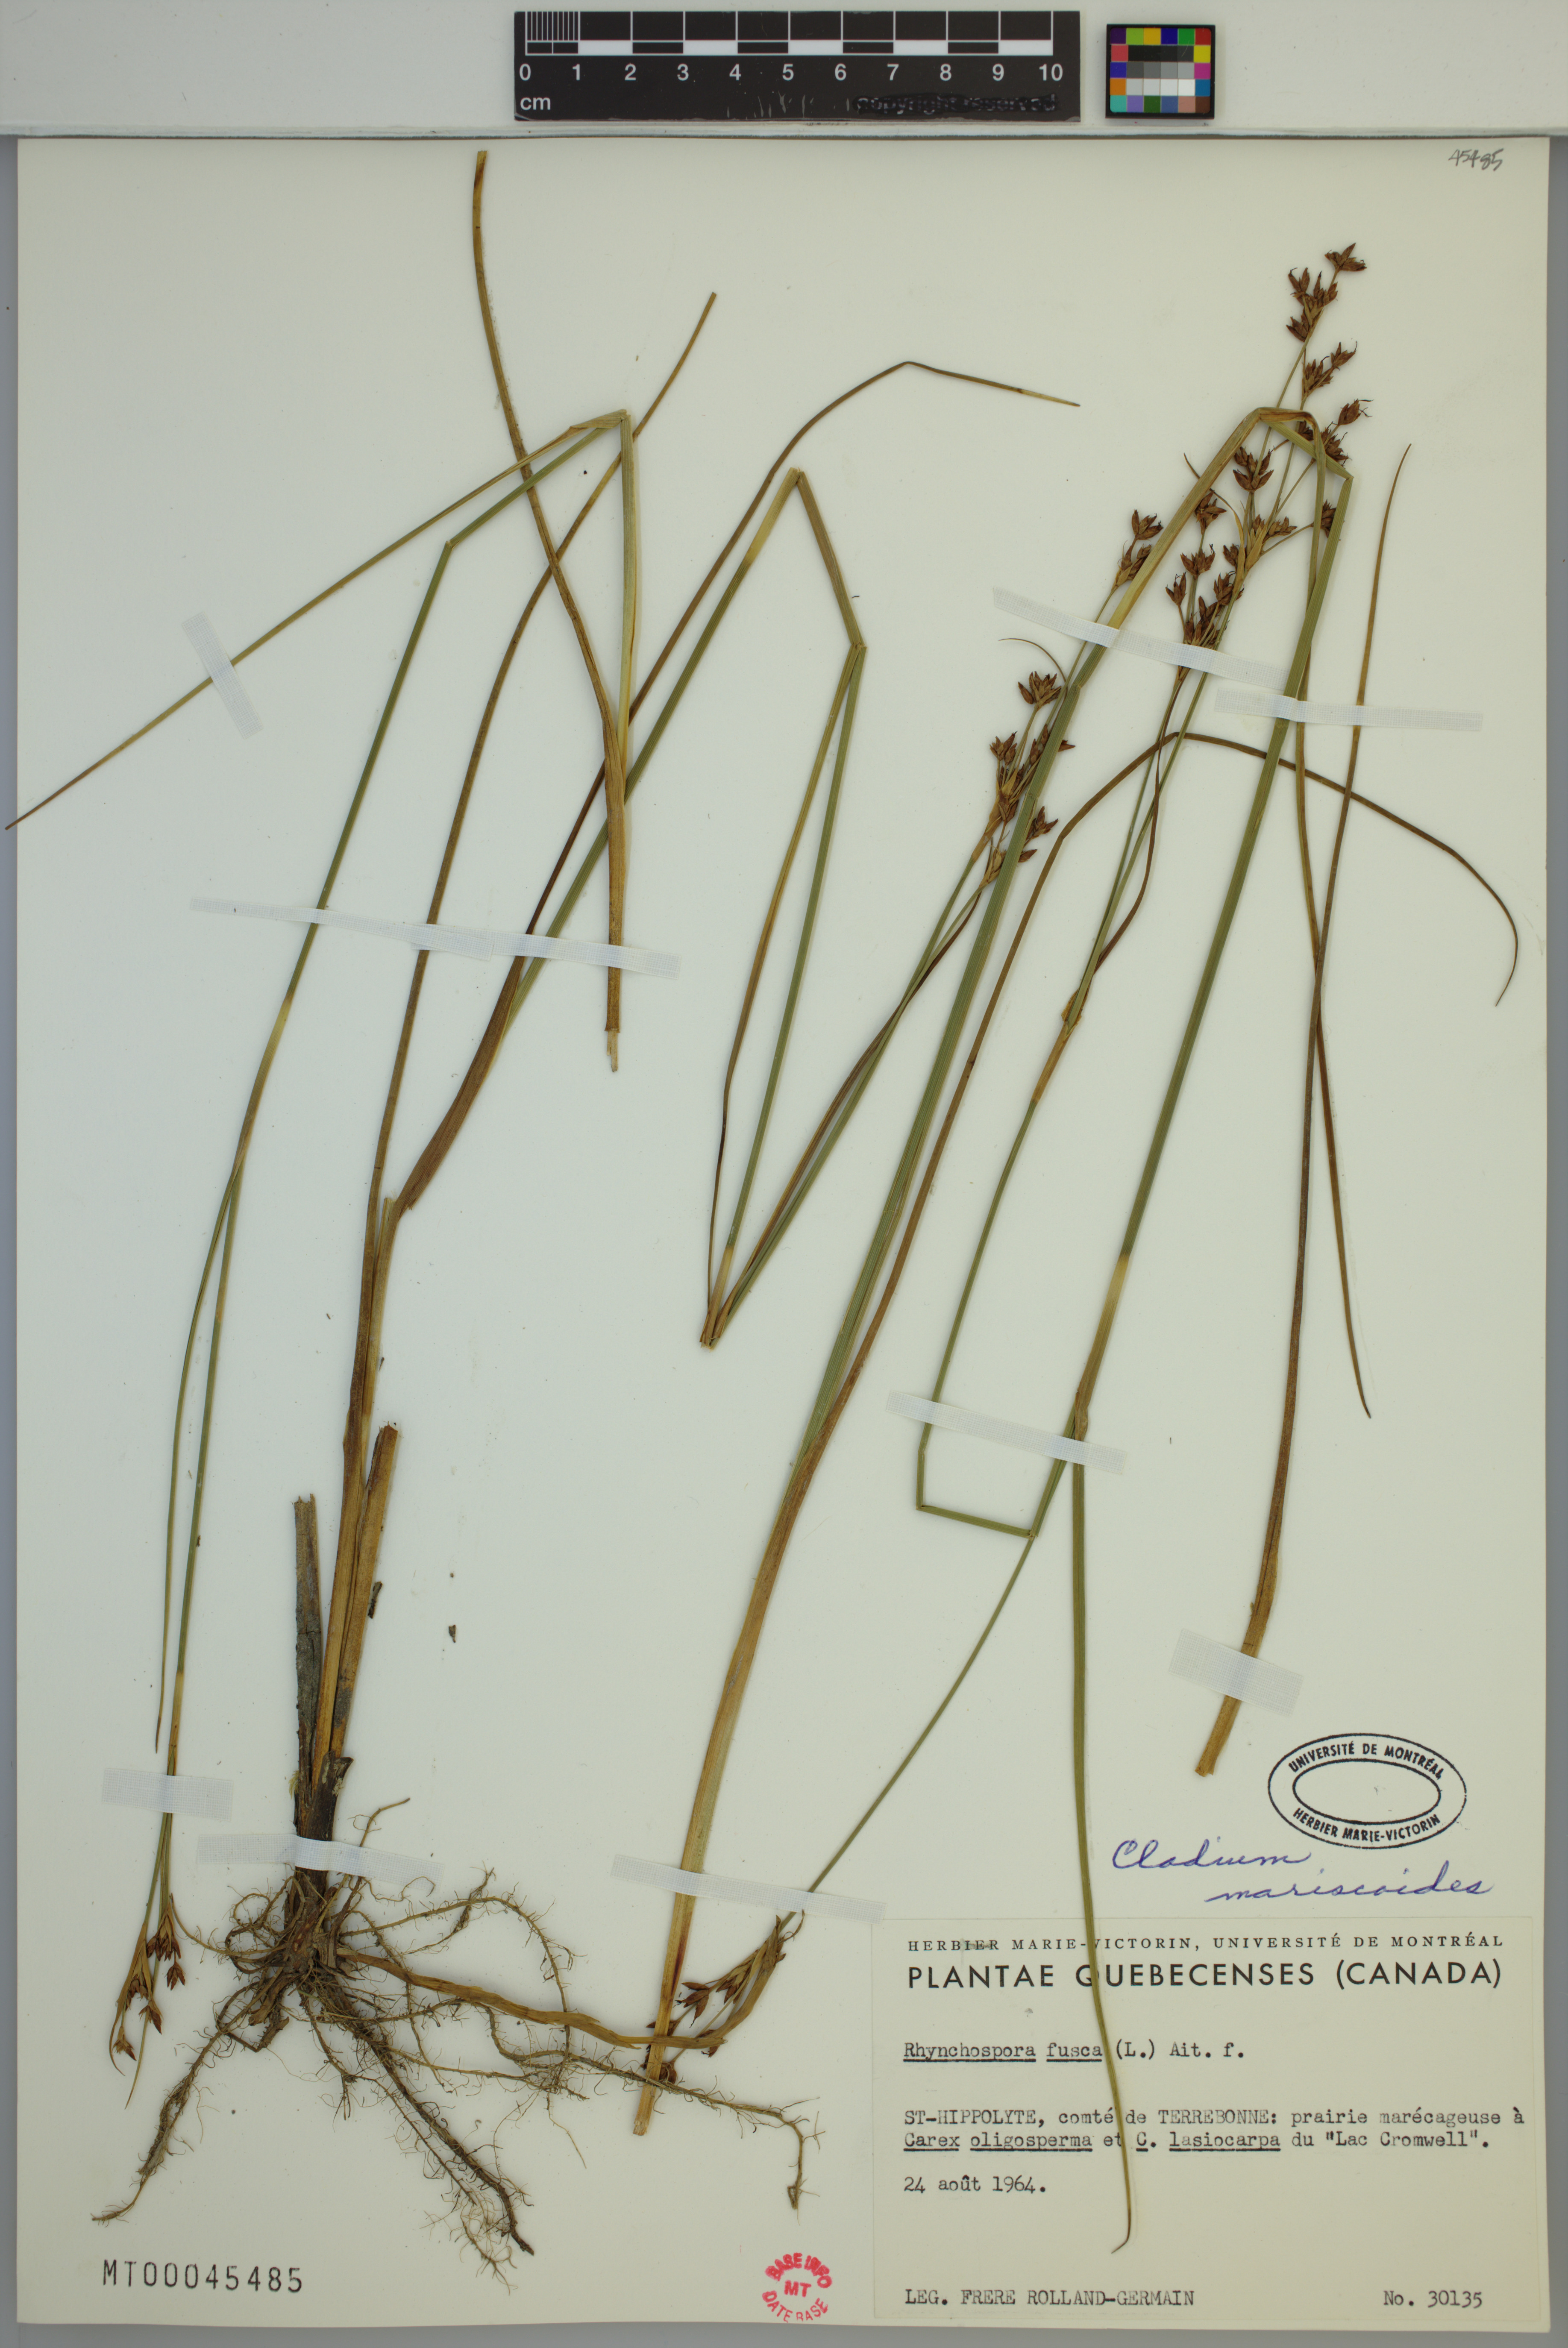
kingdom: Plantae
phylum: Tracheophyta
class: Liliopsida
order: Poales
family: Cyperaceae
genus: Cladium
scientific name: Cladium mariscoides
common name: Smooth sawgrass
